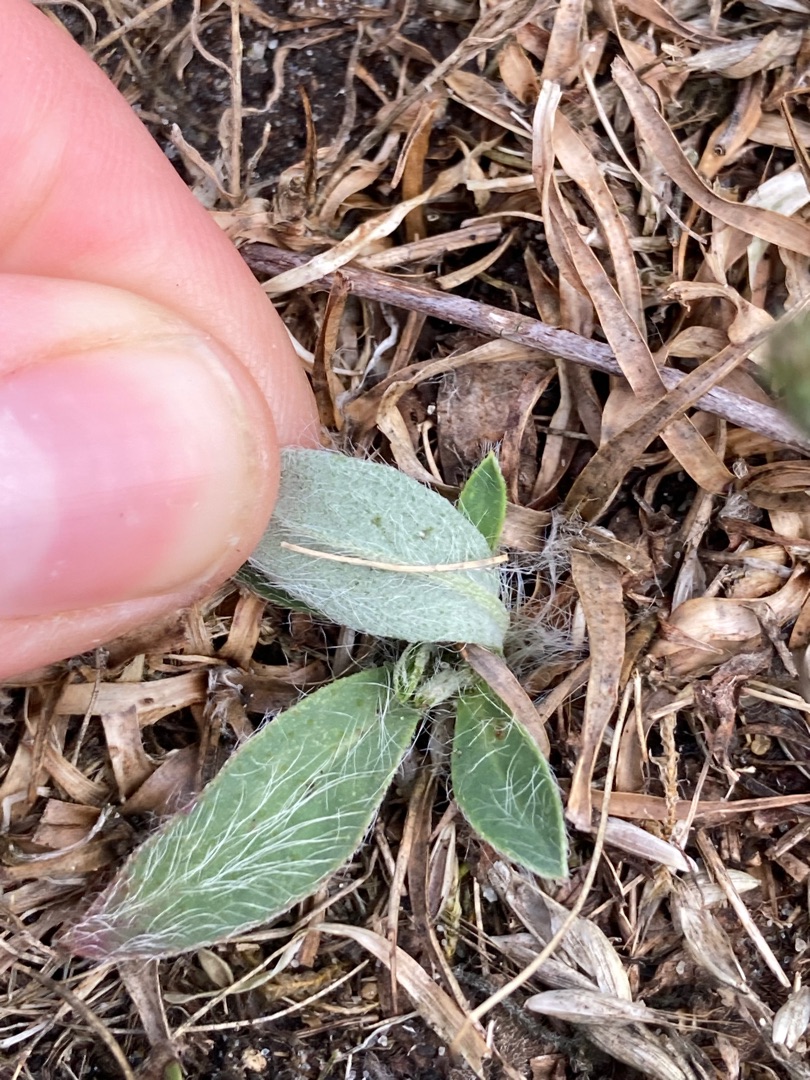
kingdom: Plantae
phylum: Tracheophyta
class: Magnoliopsida
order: Asterales
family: Asteraceae
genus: Pilosella
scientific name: Pilosella officinarum
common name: Håret høgeurt
